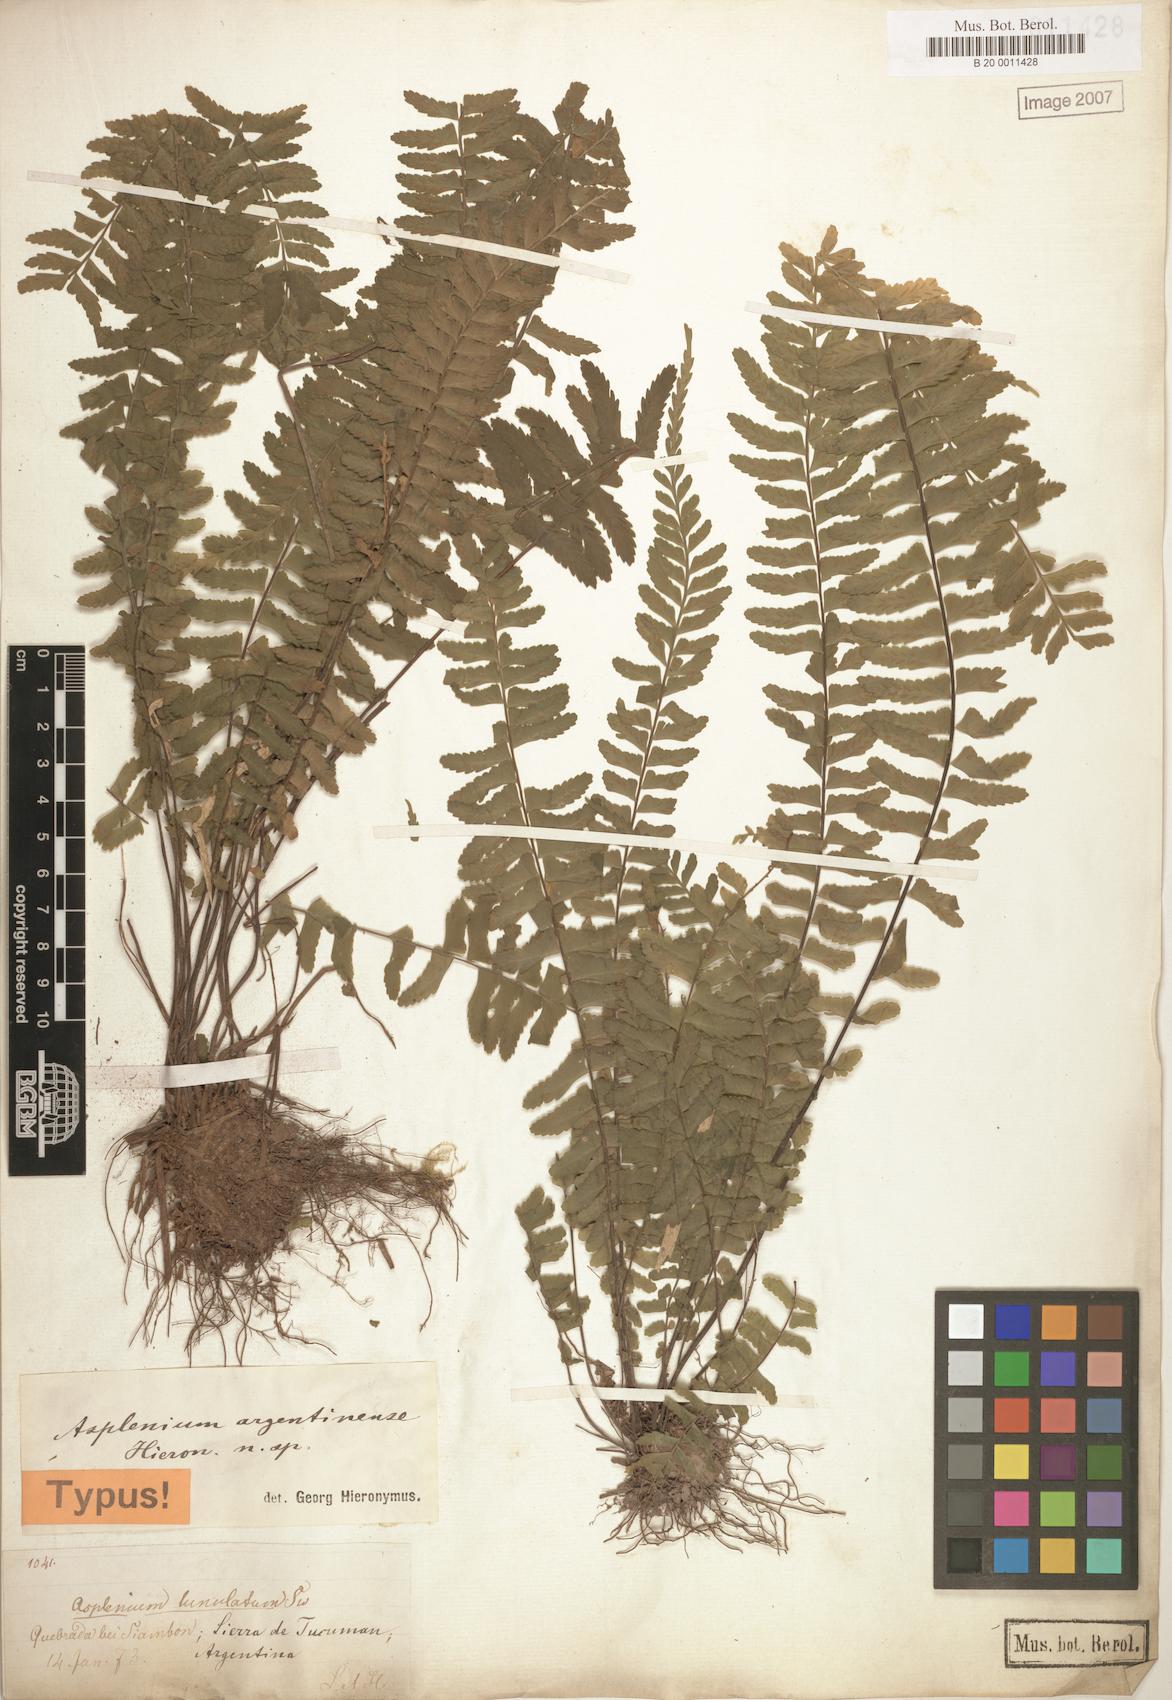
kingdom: Plantae
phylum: Tracheophyta
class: Polypodiopsida
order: Polypodiales
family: Aspleniaceae
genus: Asplenium
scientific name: Asplenium argentinum
